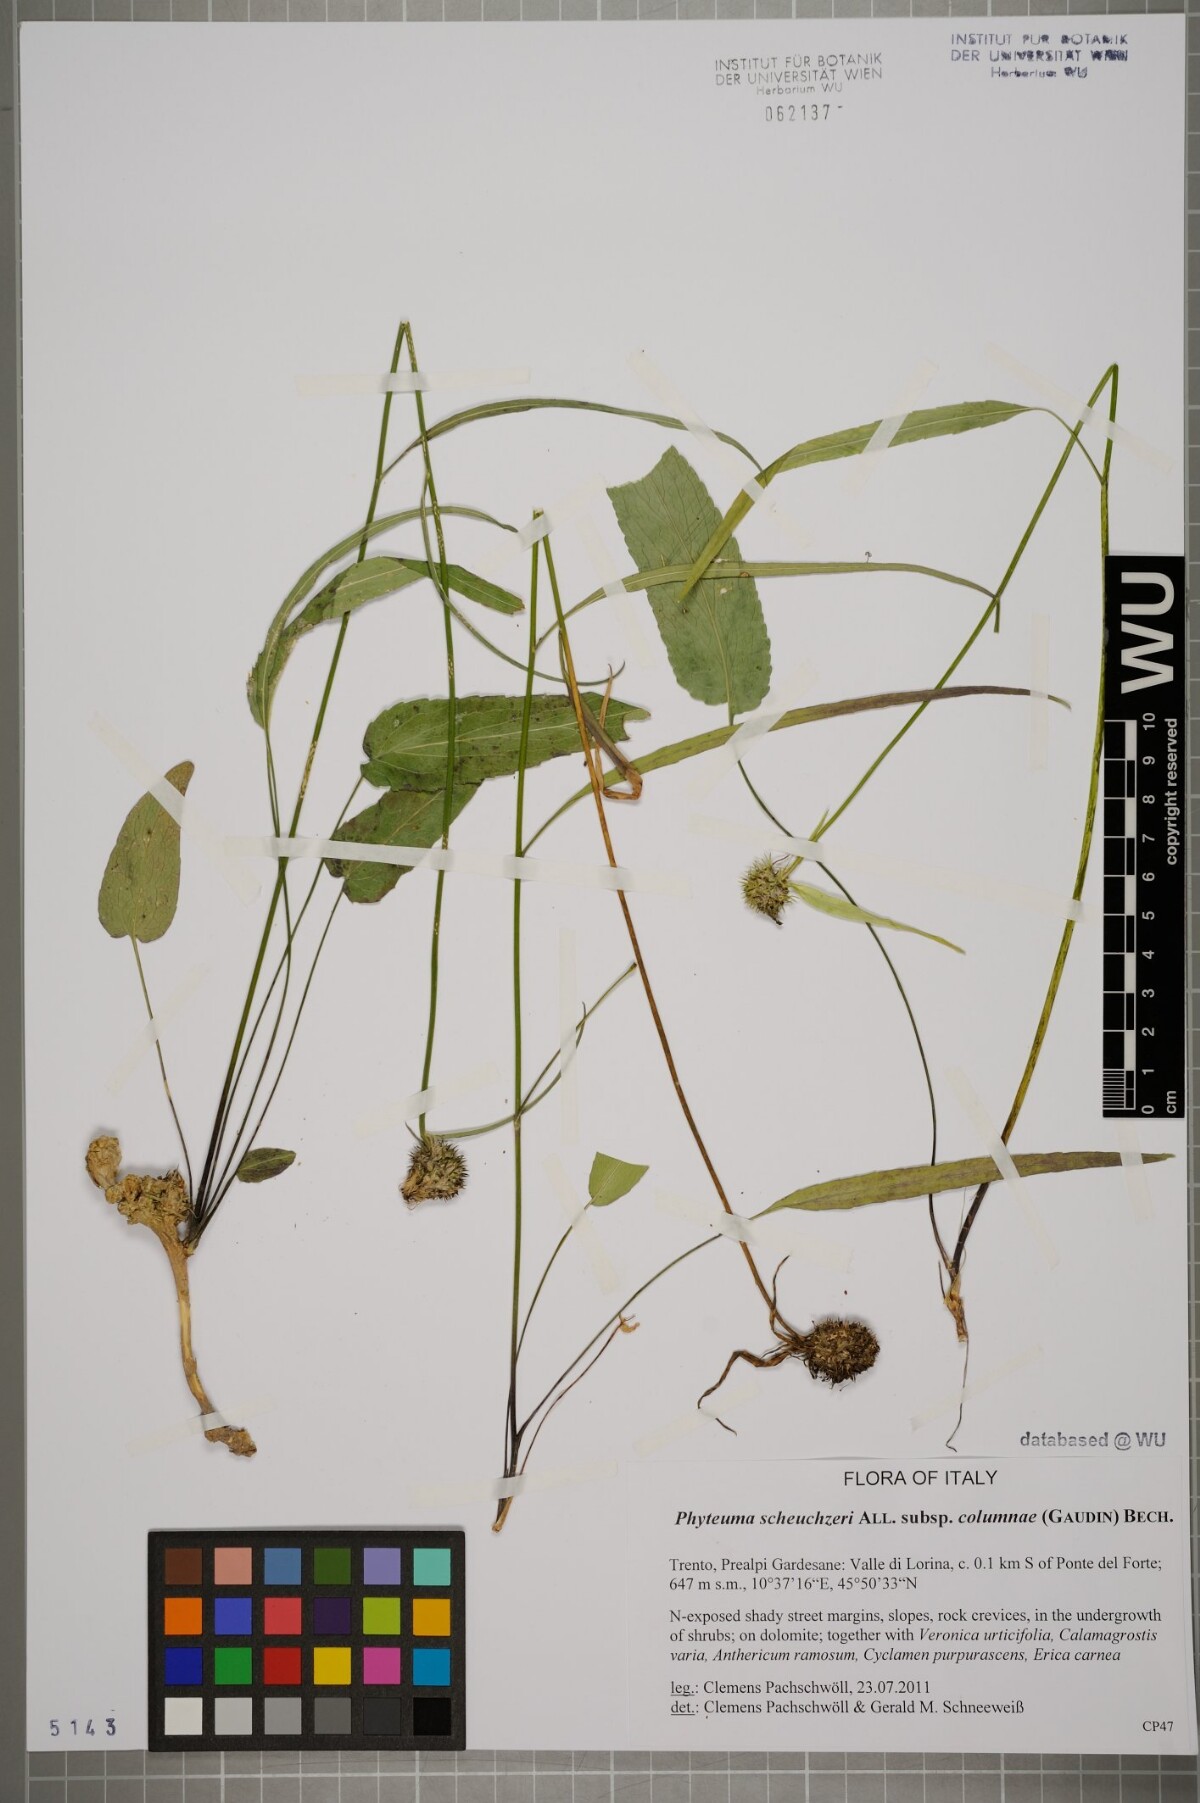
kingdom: Plantae
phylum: Tracheophyta
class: Magnoliopsida
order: Asterales
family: Campanulaceae
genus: Phyteuma
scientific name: Phyteuma scheuchzeri
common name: Oxford rampion
